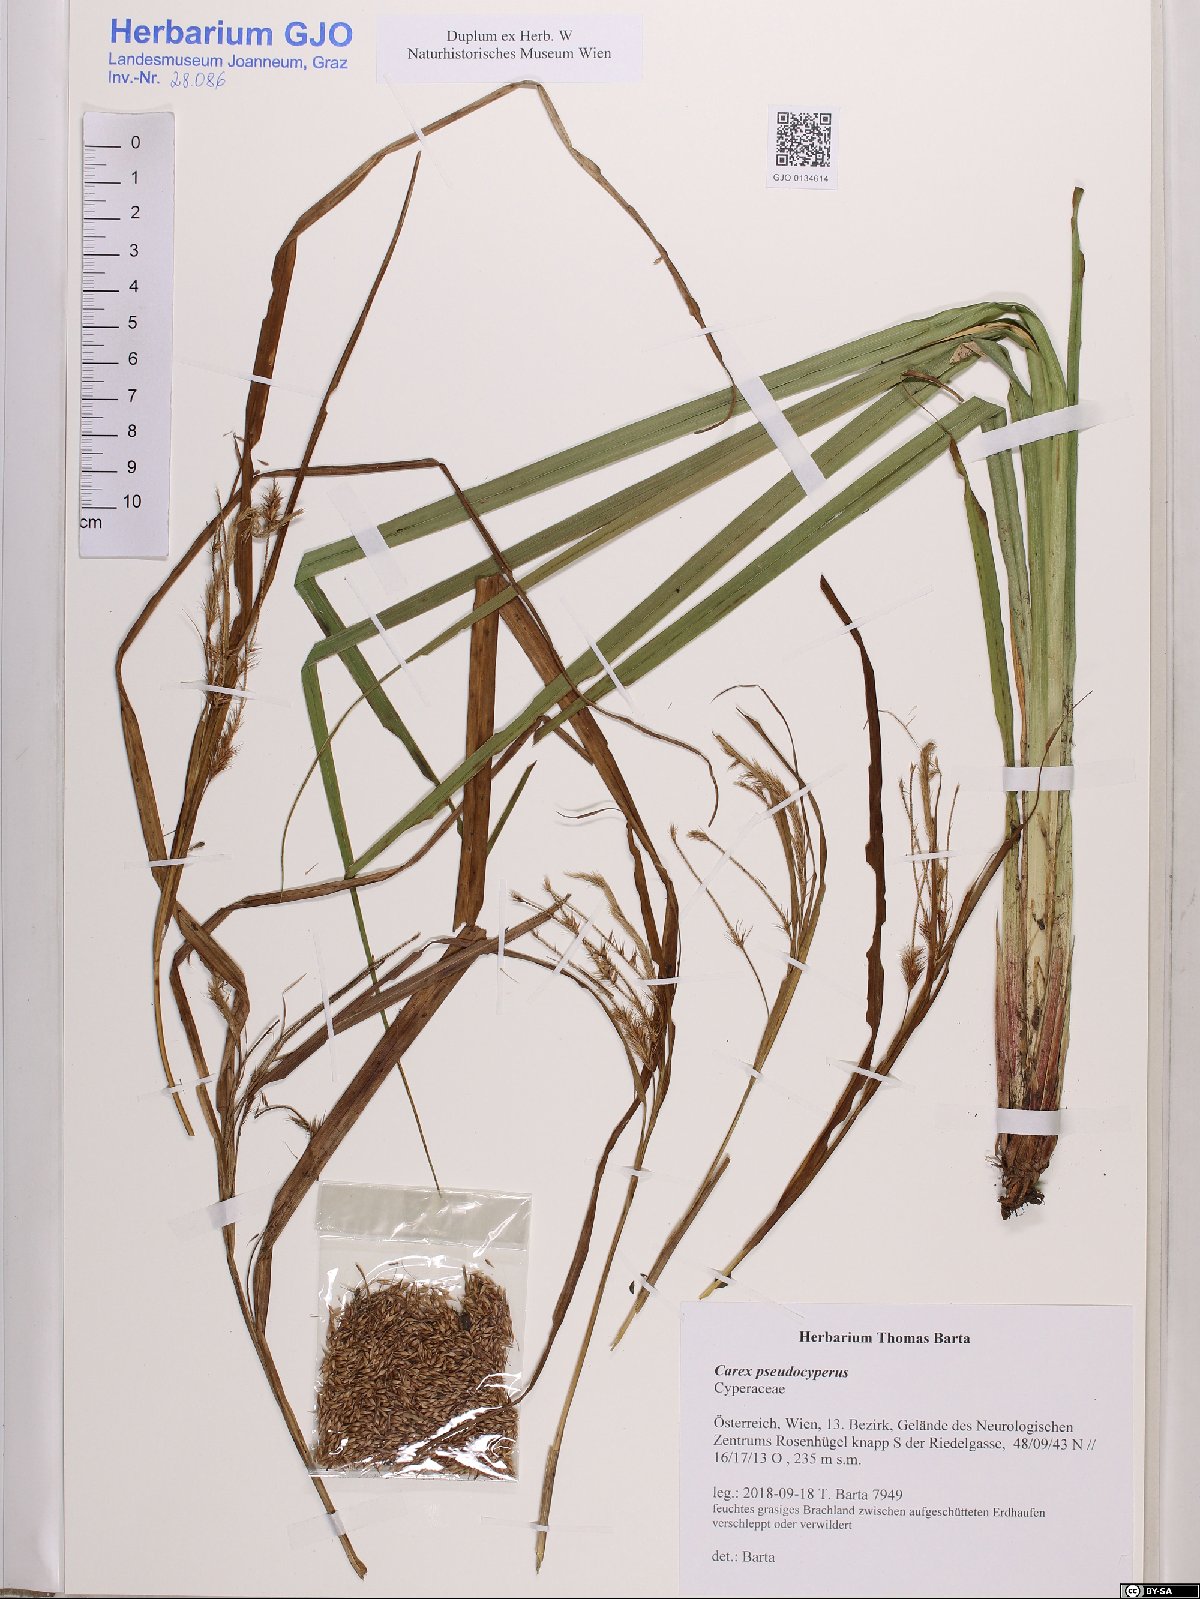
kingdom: Plantae
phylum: Tracheophyta
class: Liliopsida
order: Poales
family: Cyperaceae
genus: Carex
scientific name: Carex pseudocyperus
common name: Cyperus sedge
